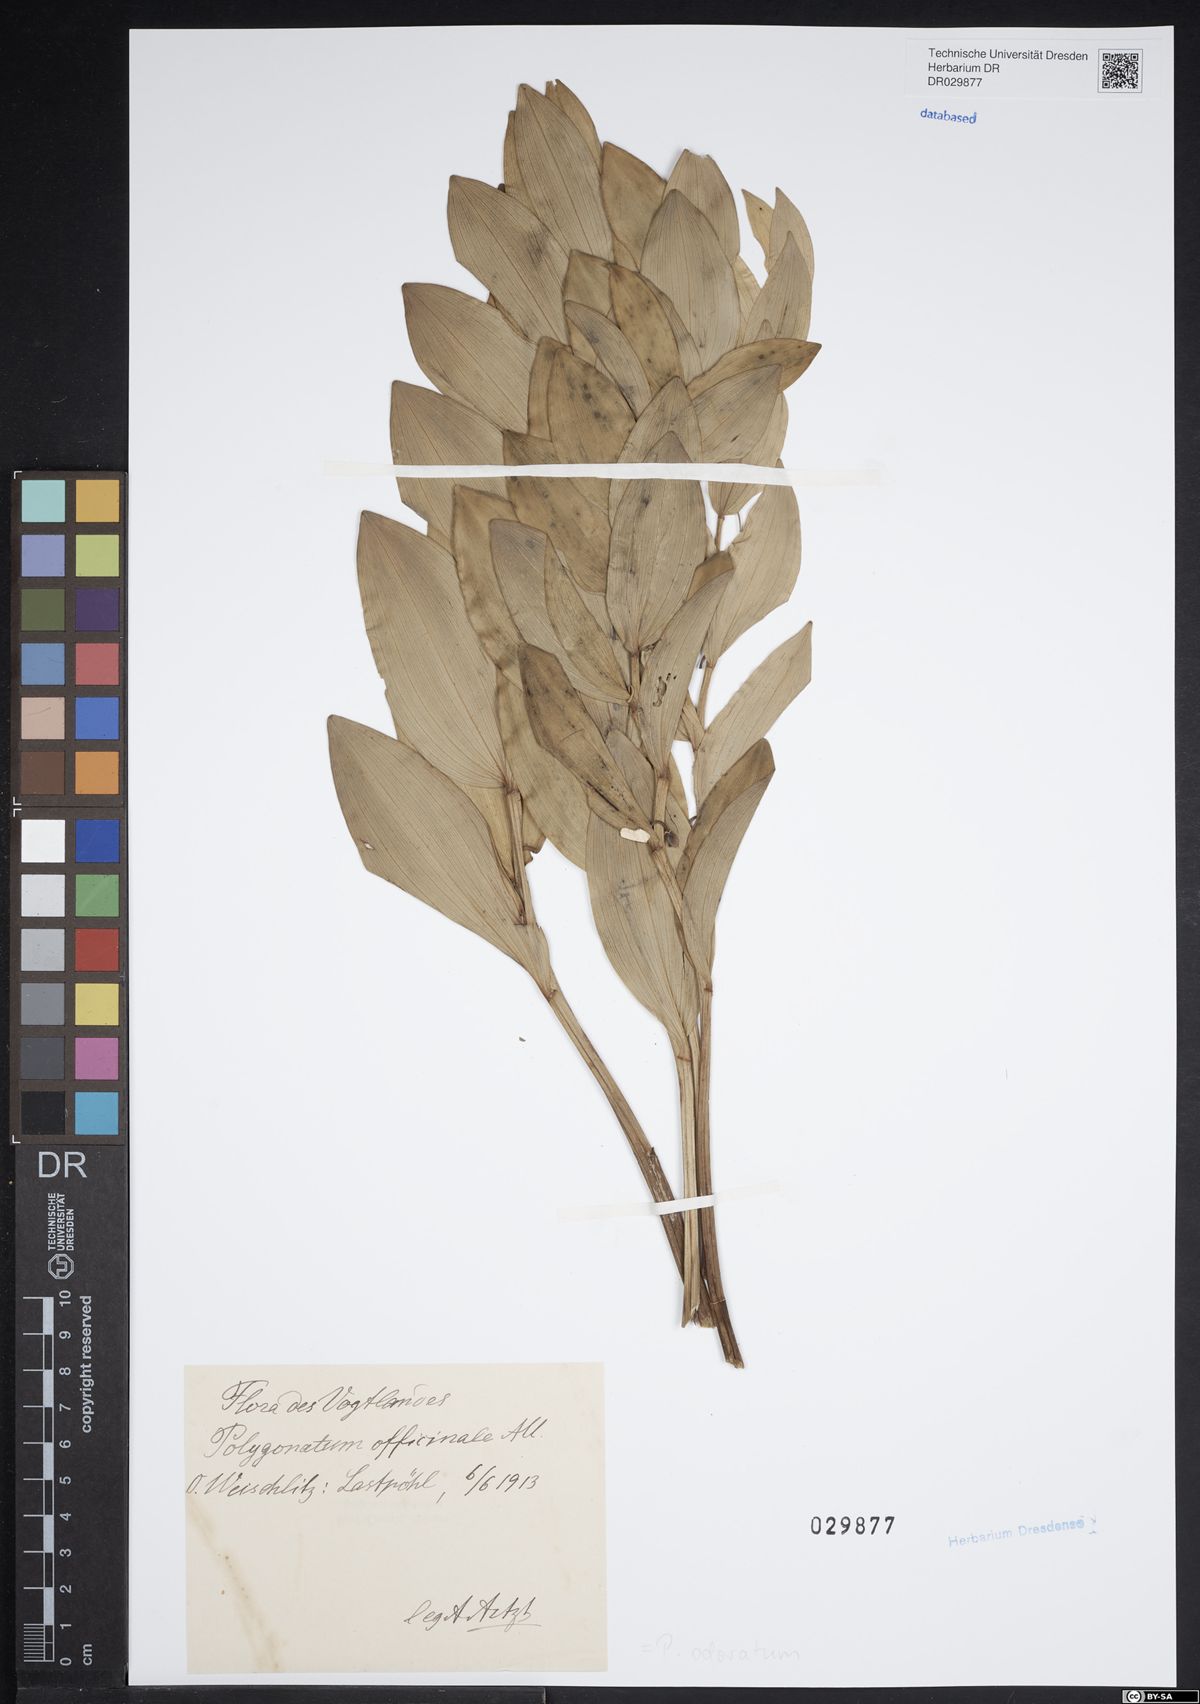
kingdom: Plantae
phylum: Tracheophyta
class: Liliopsida
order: Asparagales
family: Asparagaceae
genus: Polygonatum
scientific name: Polygonatum odoratum
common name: Angular solomon's-seal
